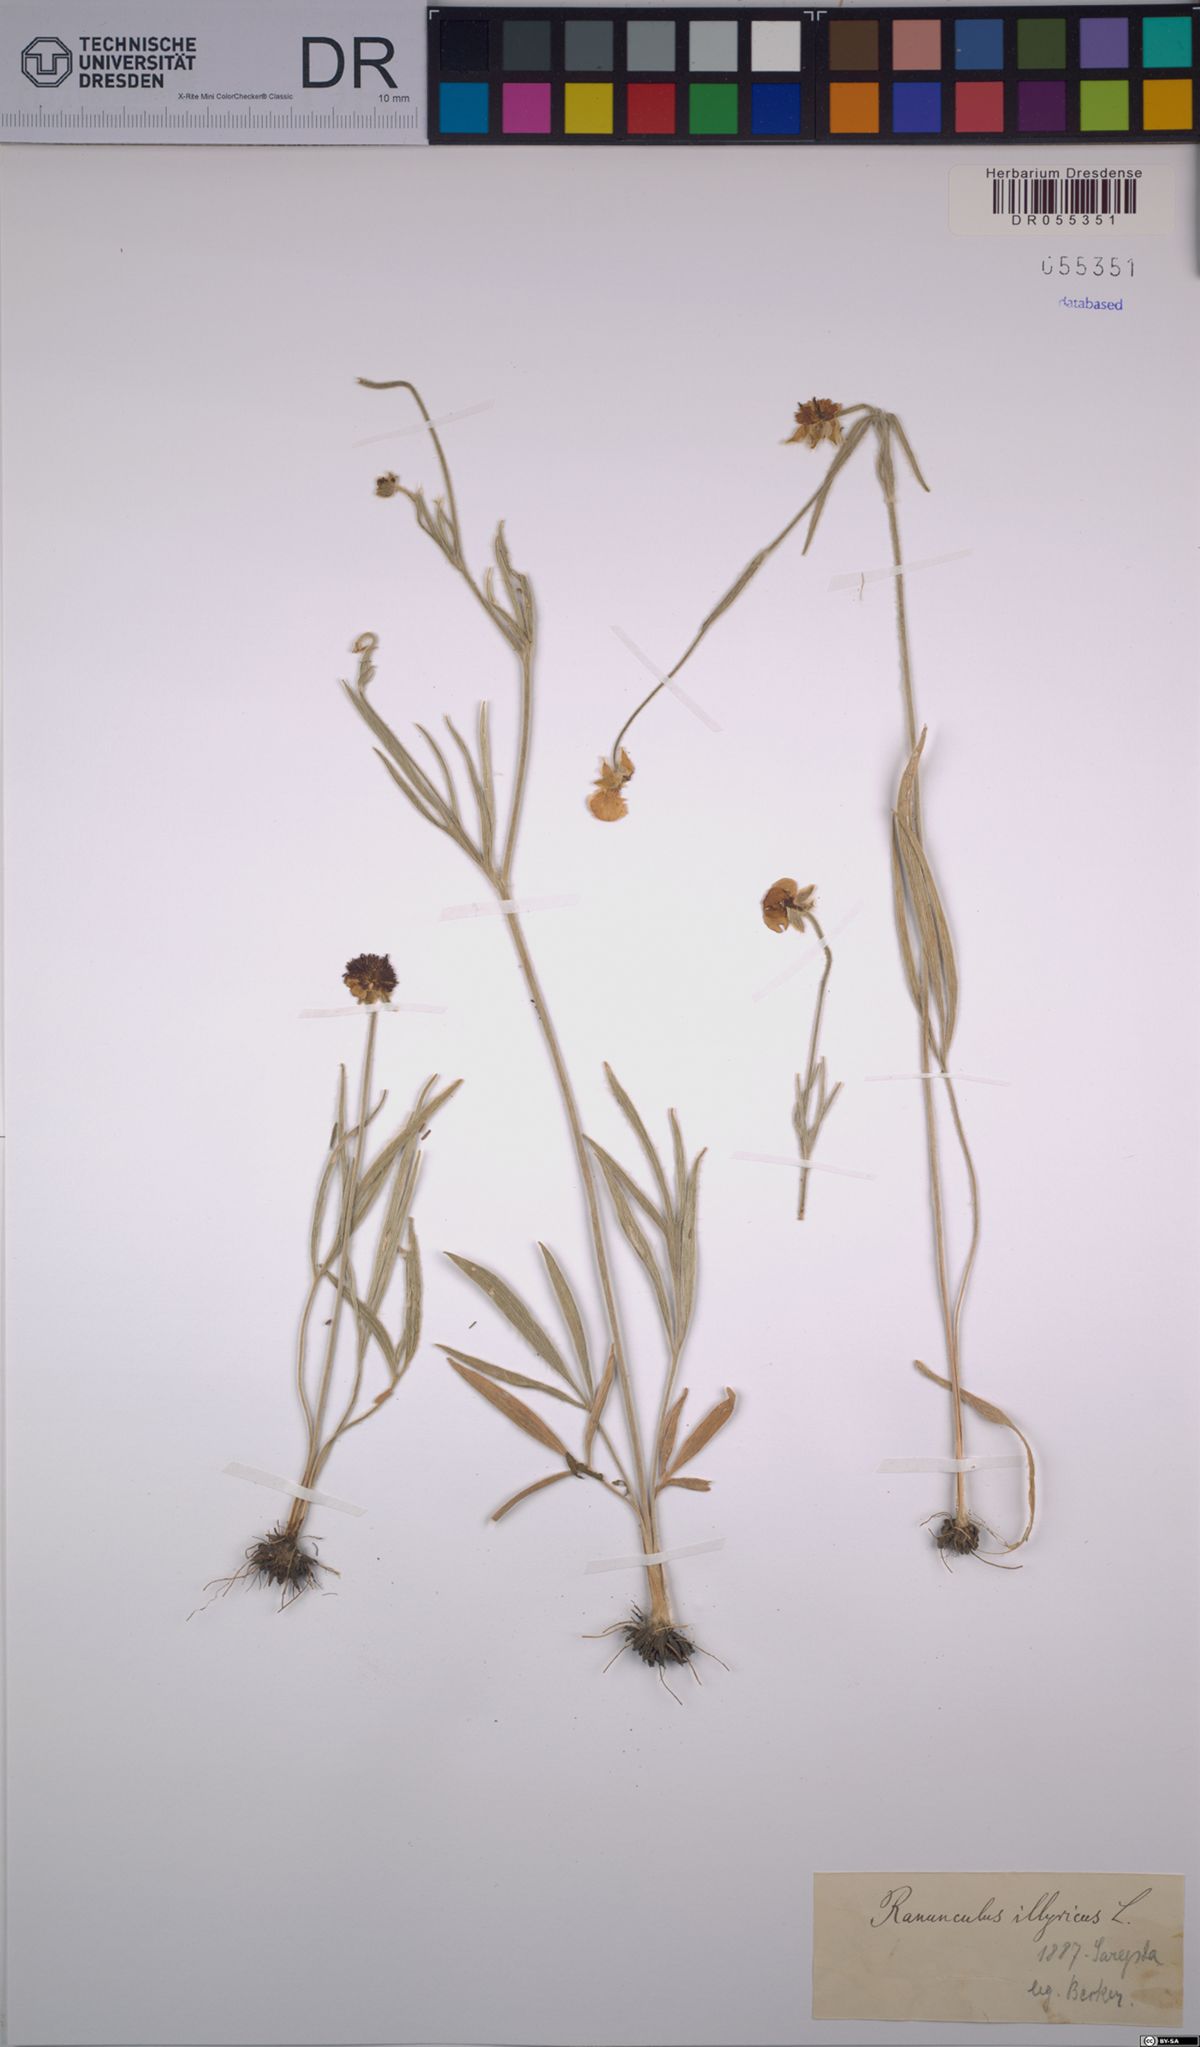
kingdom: Plantae
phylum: Tracheophyta
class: Magnoliopsida
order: Ranunculales
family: Ranunculaceae
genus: Ranunculus
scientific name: Ranunculus illyricus
